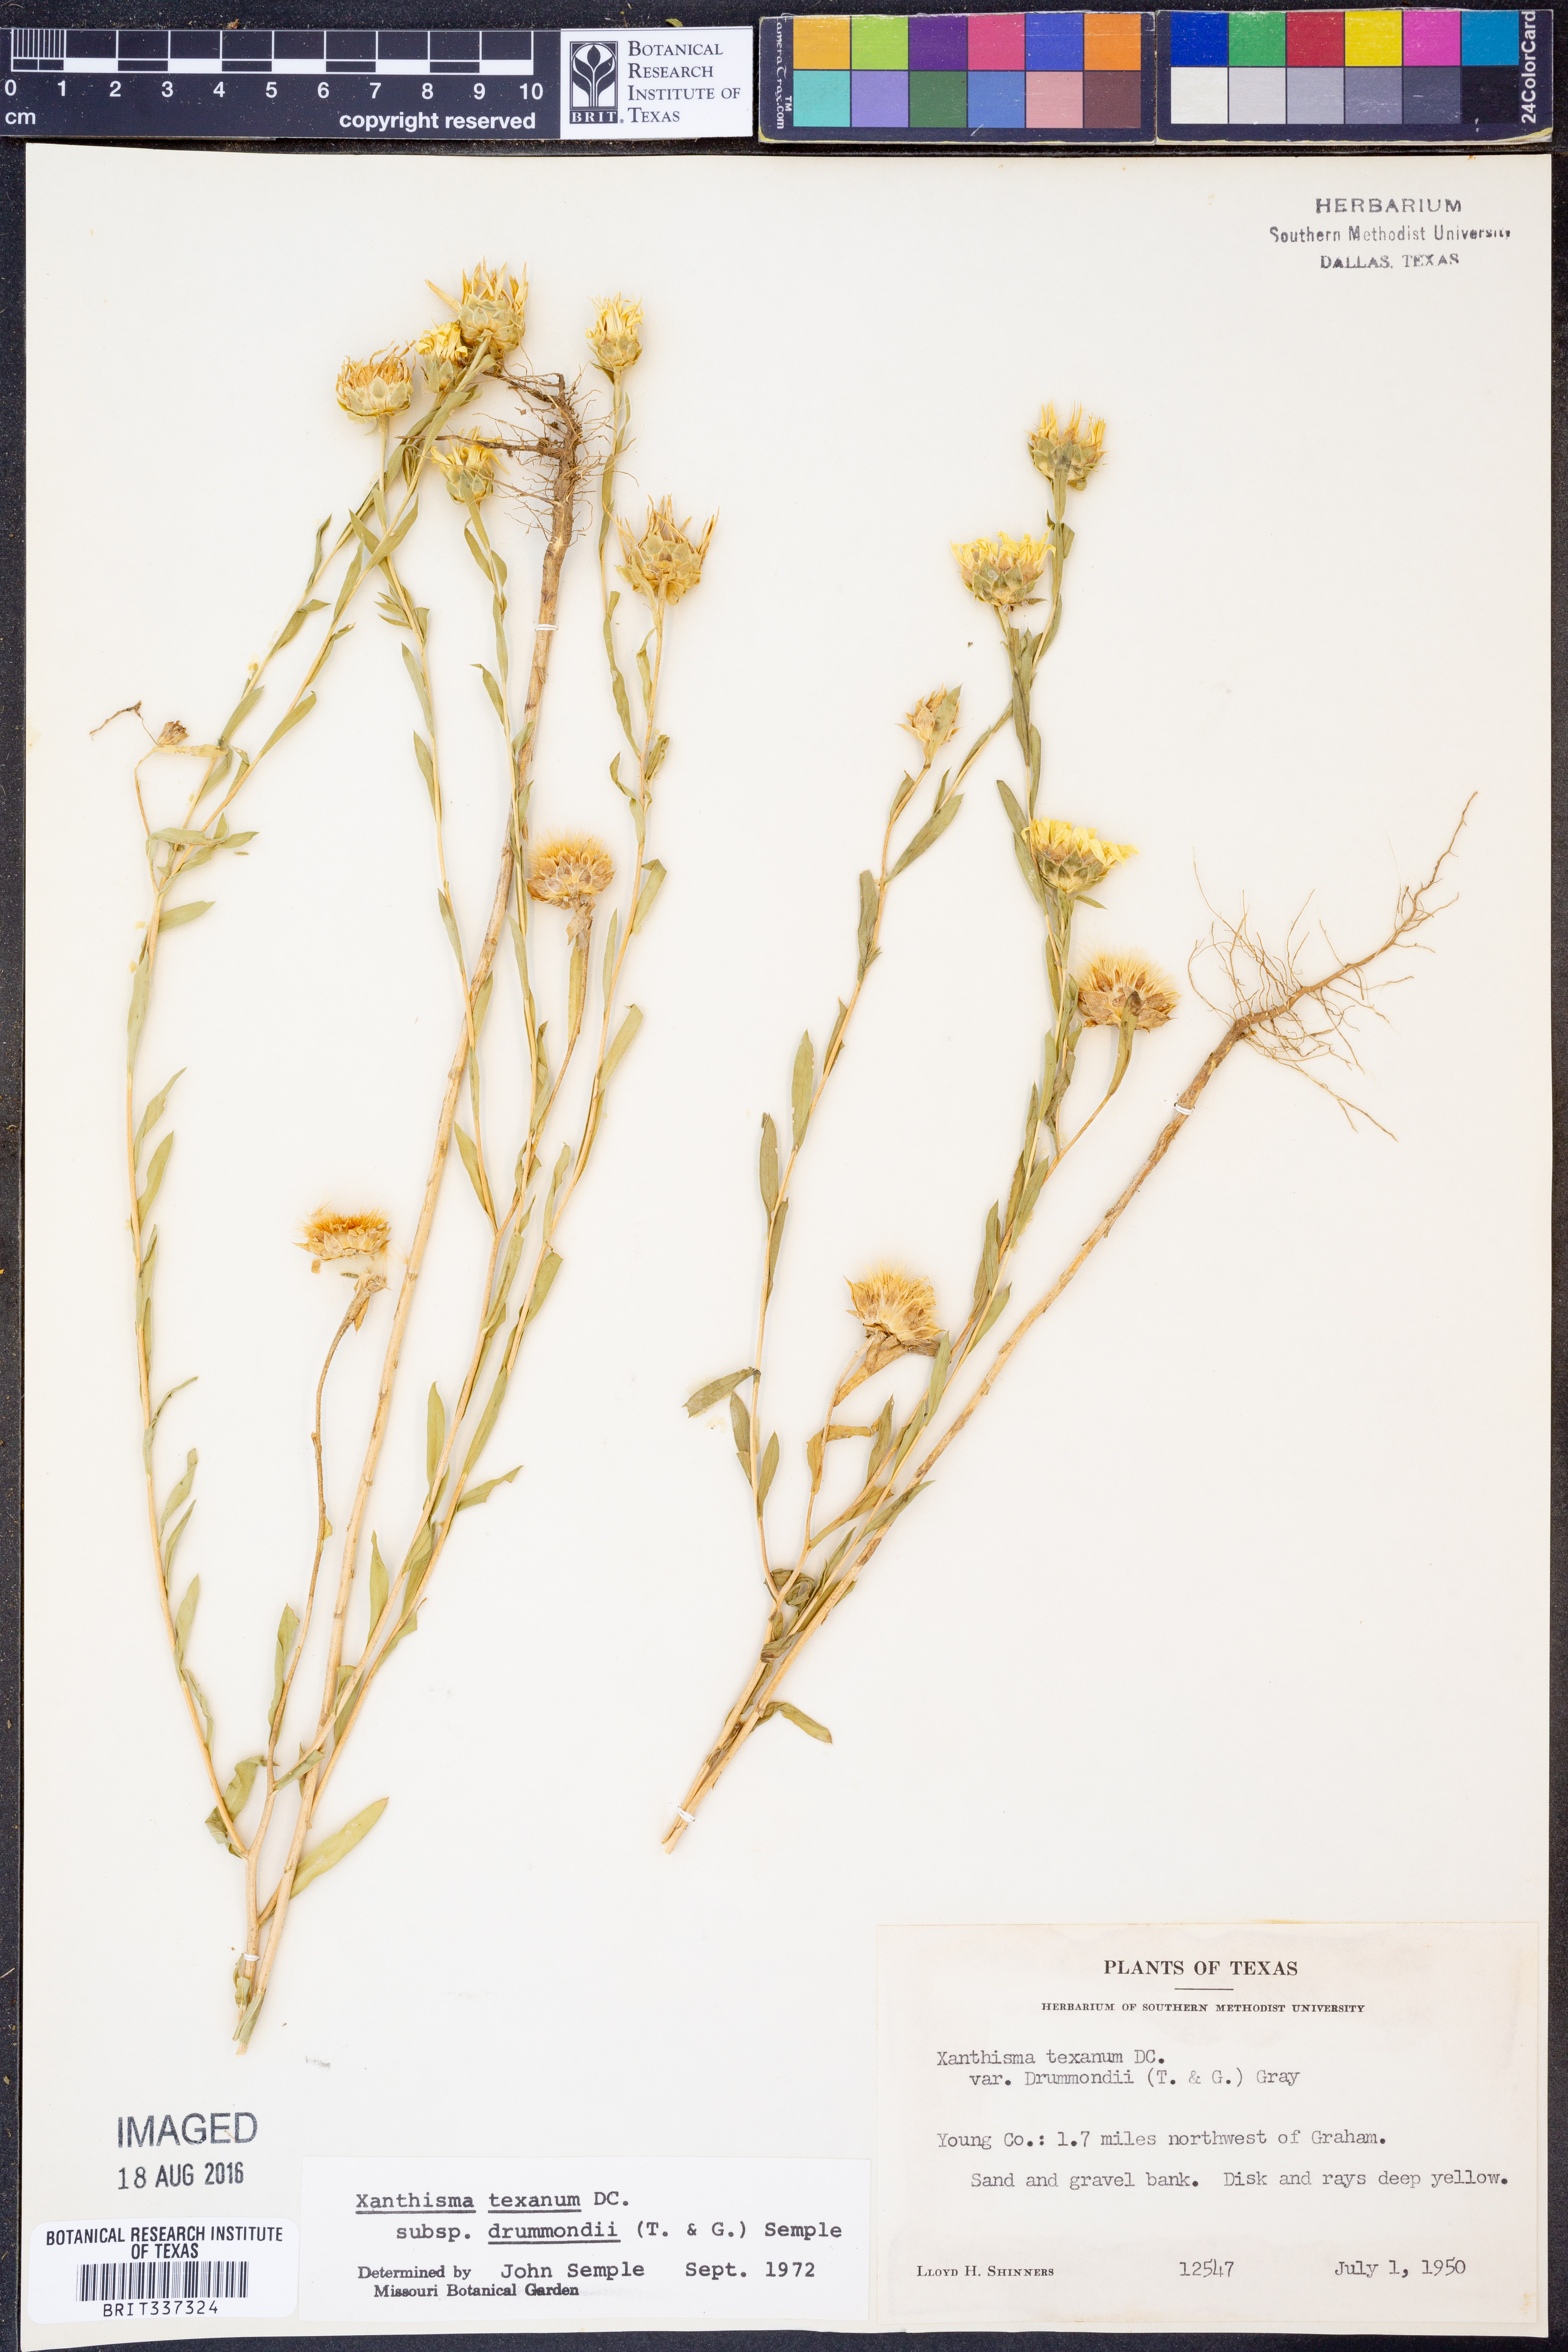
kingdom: Plantae
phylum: Tracheophyta
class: Magnoliopsida
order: Asterales
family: Asteraceae
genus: Xanthisma
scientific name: Xanthisma texanum
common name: Texas sleepy daisy
